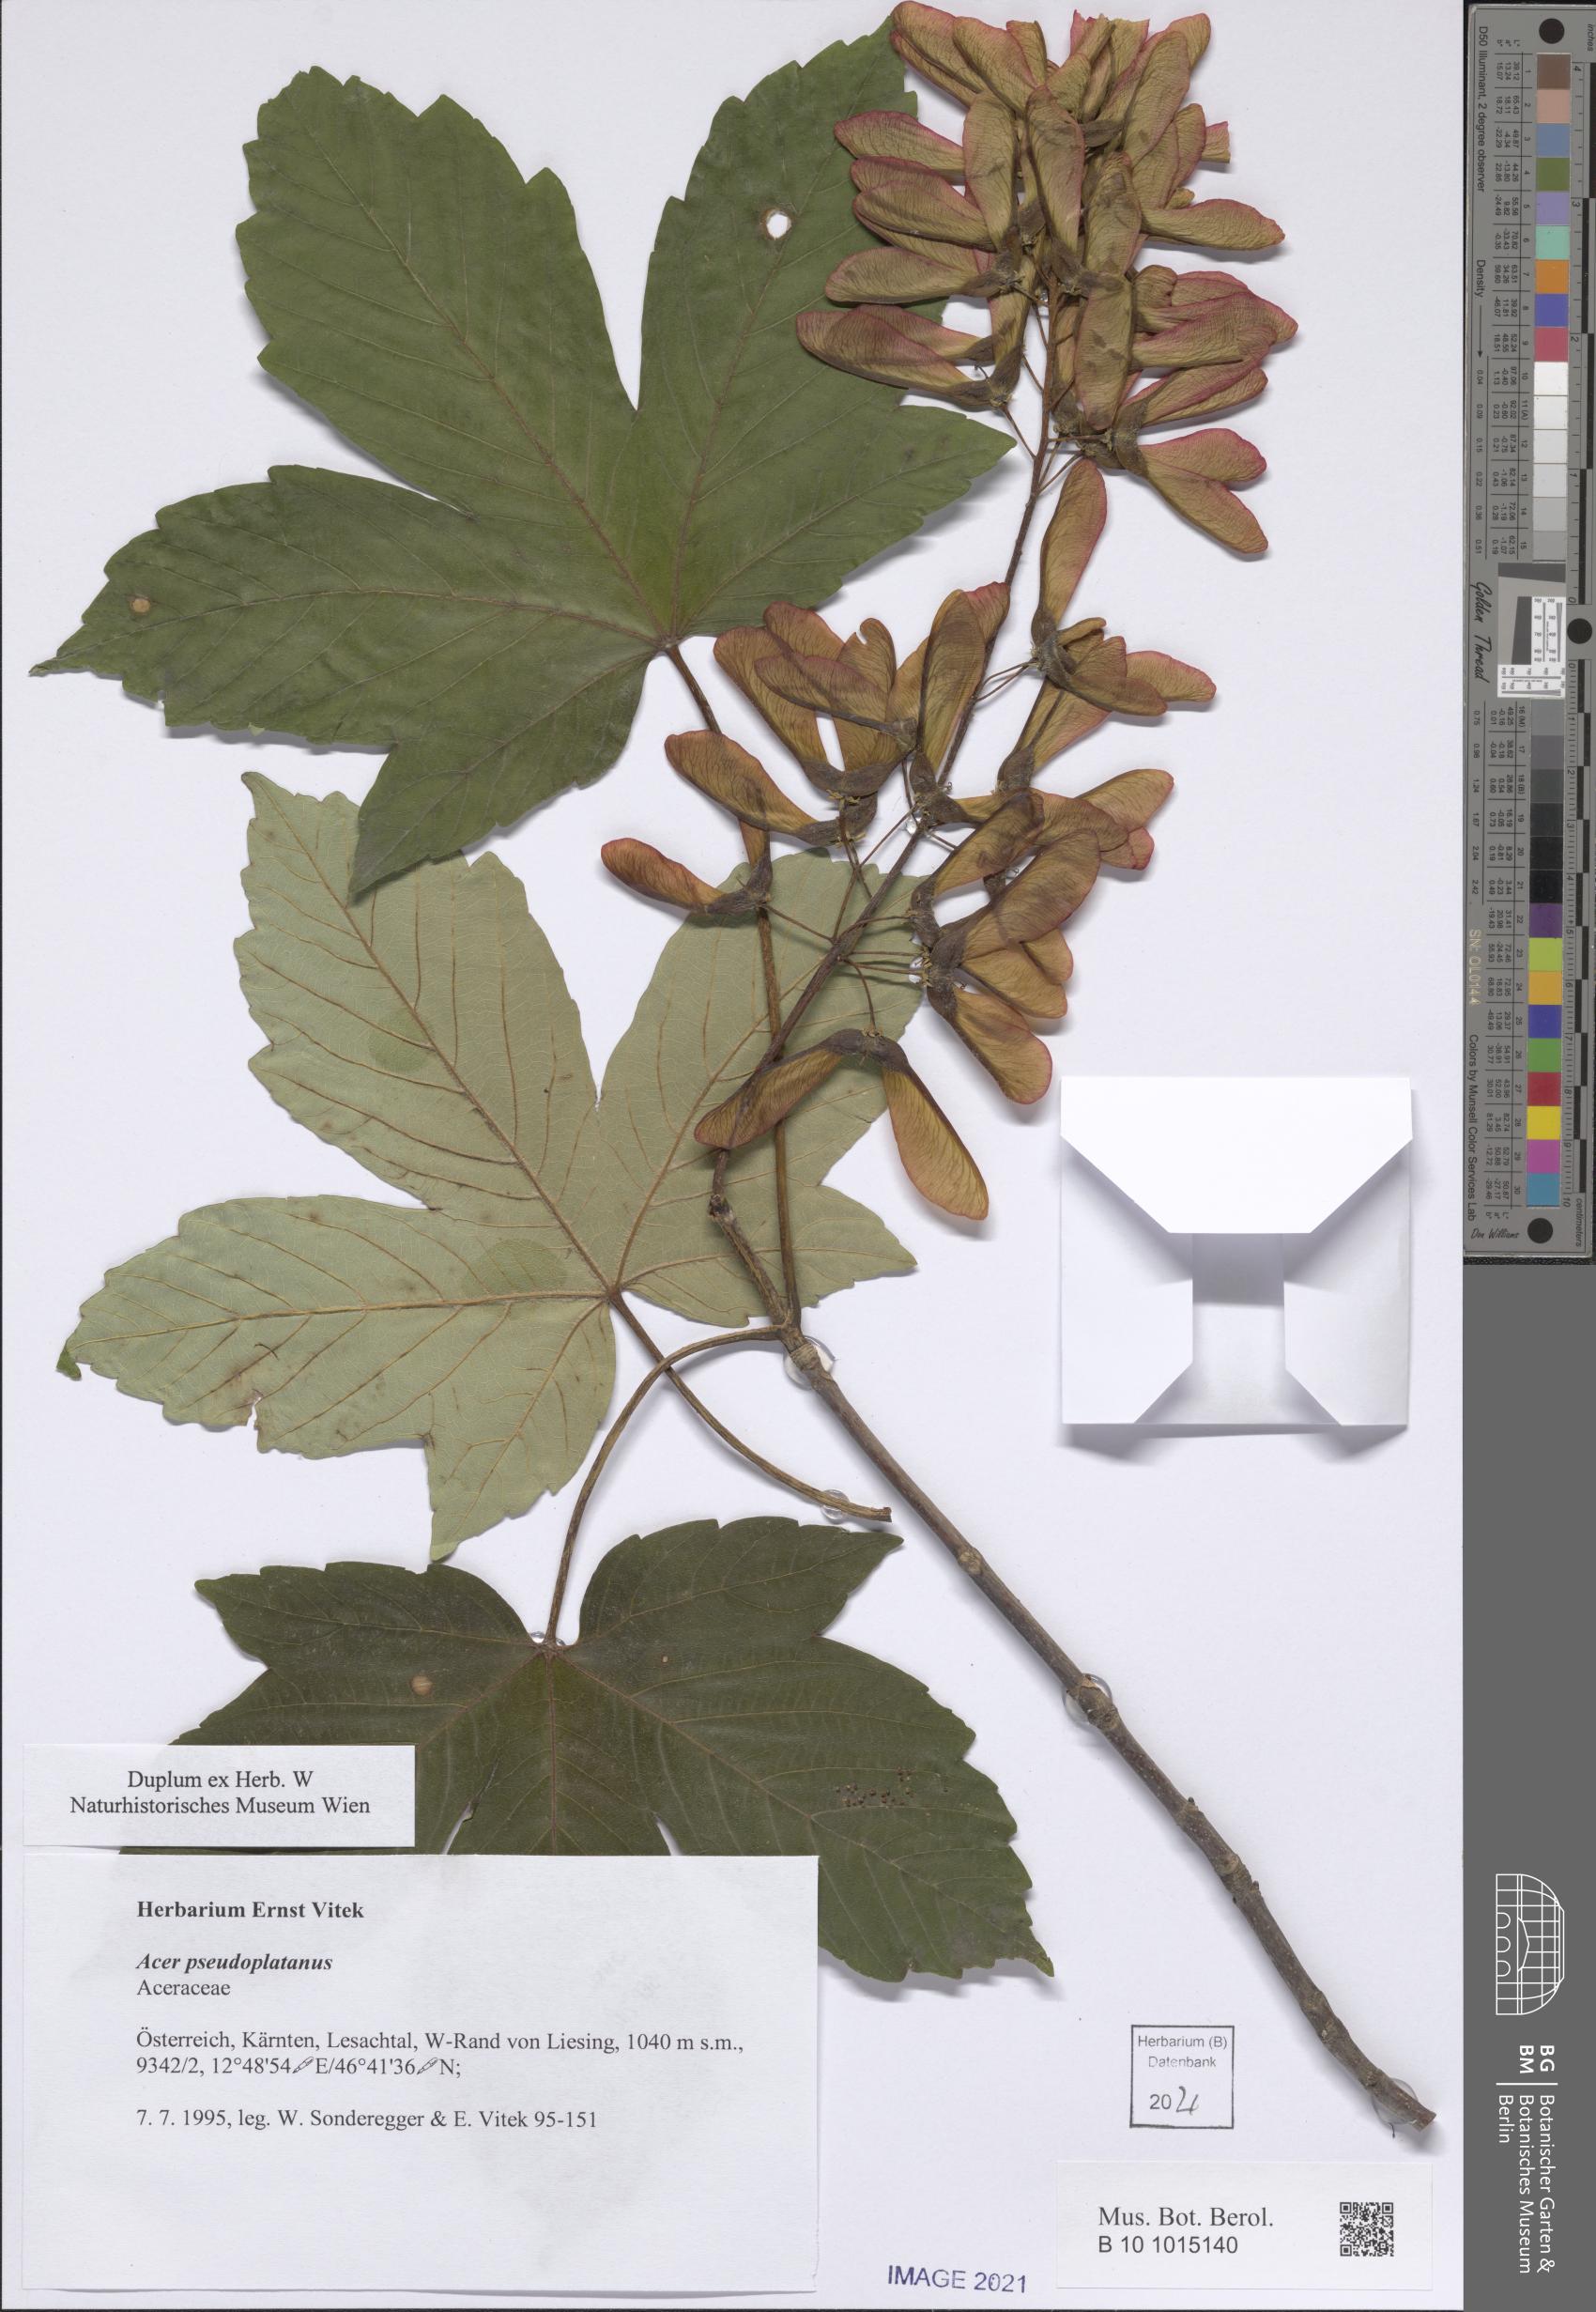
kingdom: Plantae
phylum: Tracheophyta
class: Magnoliopsida
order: Sapindales
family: Sapindaceae
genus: Acer
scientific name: Acer pseudoplatanus
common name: Sycamore
